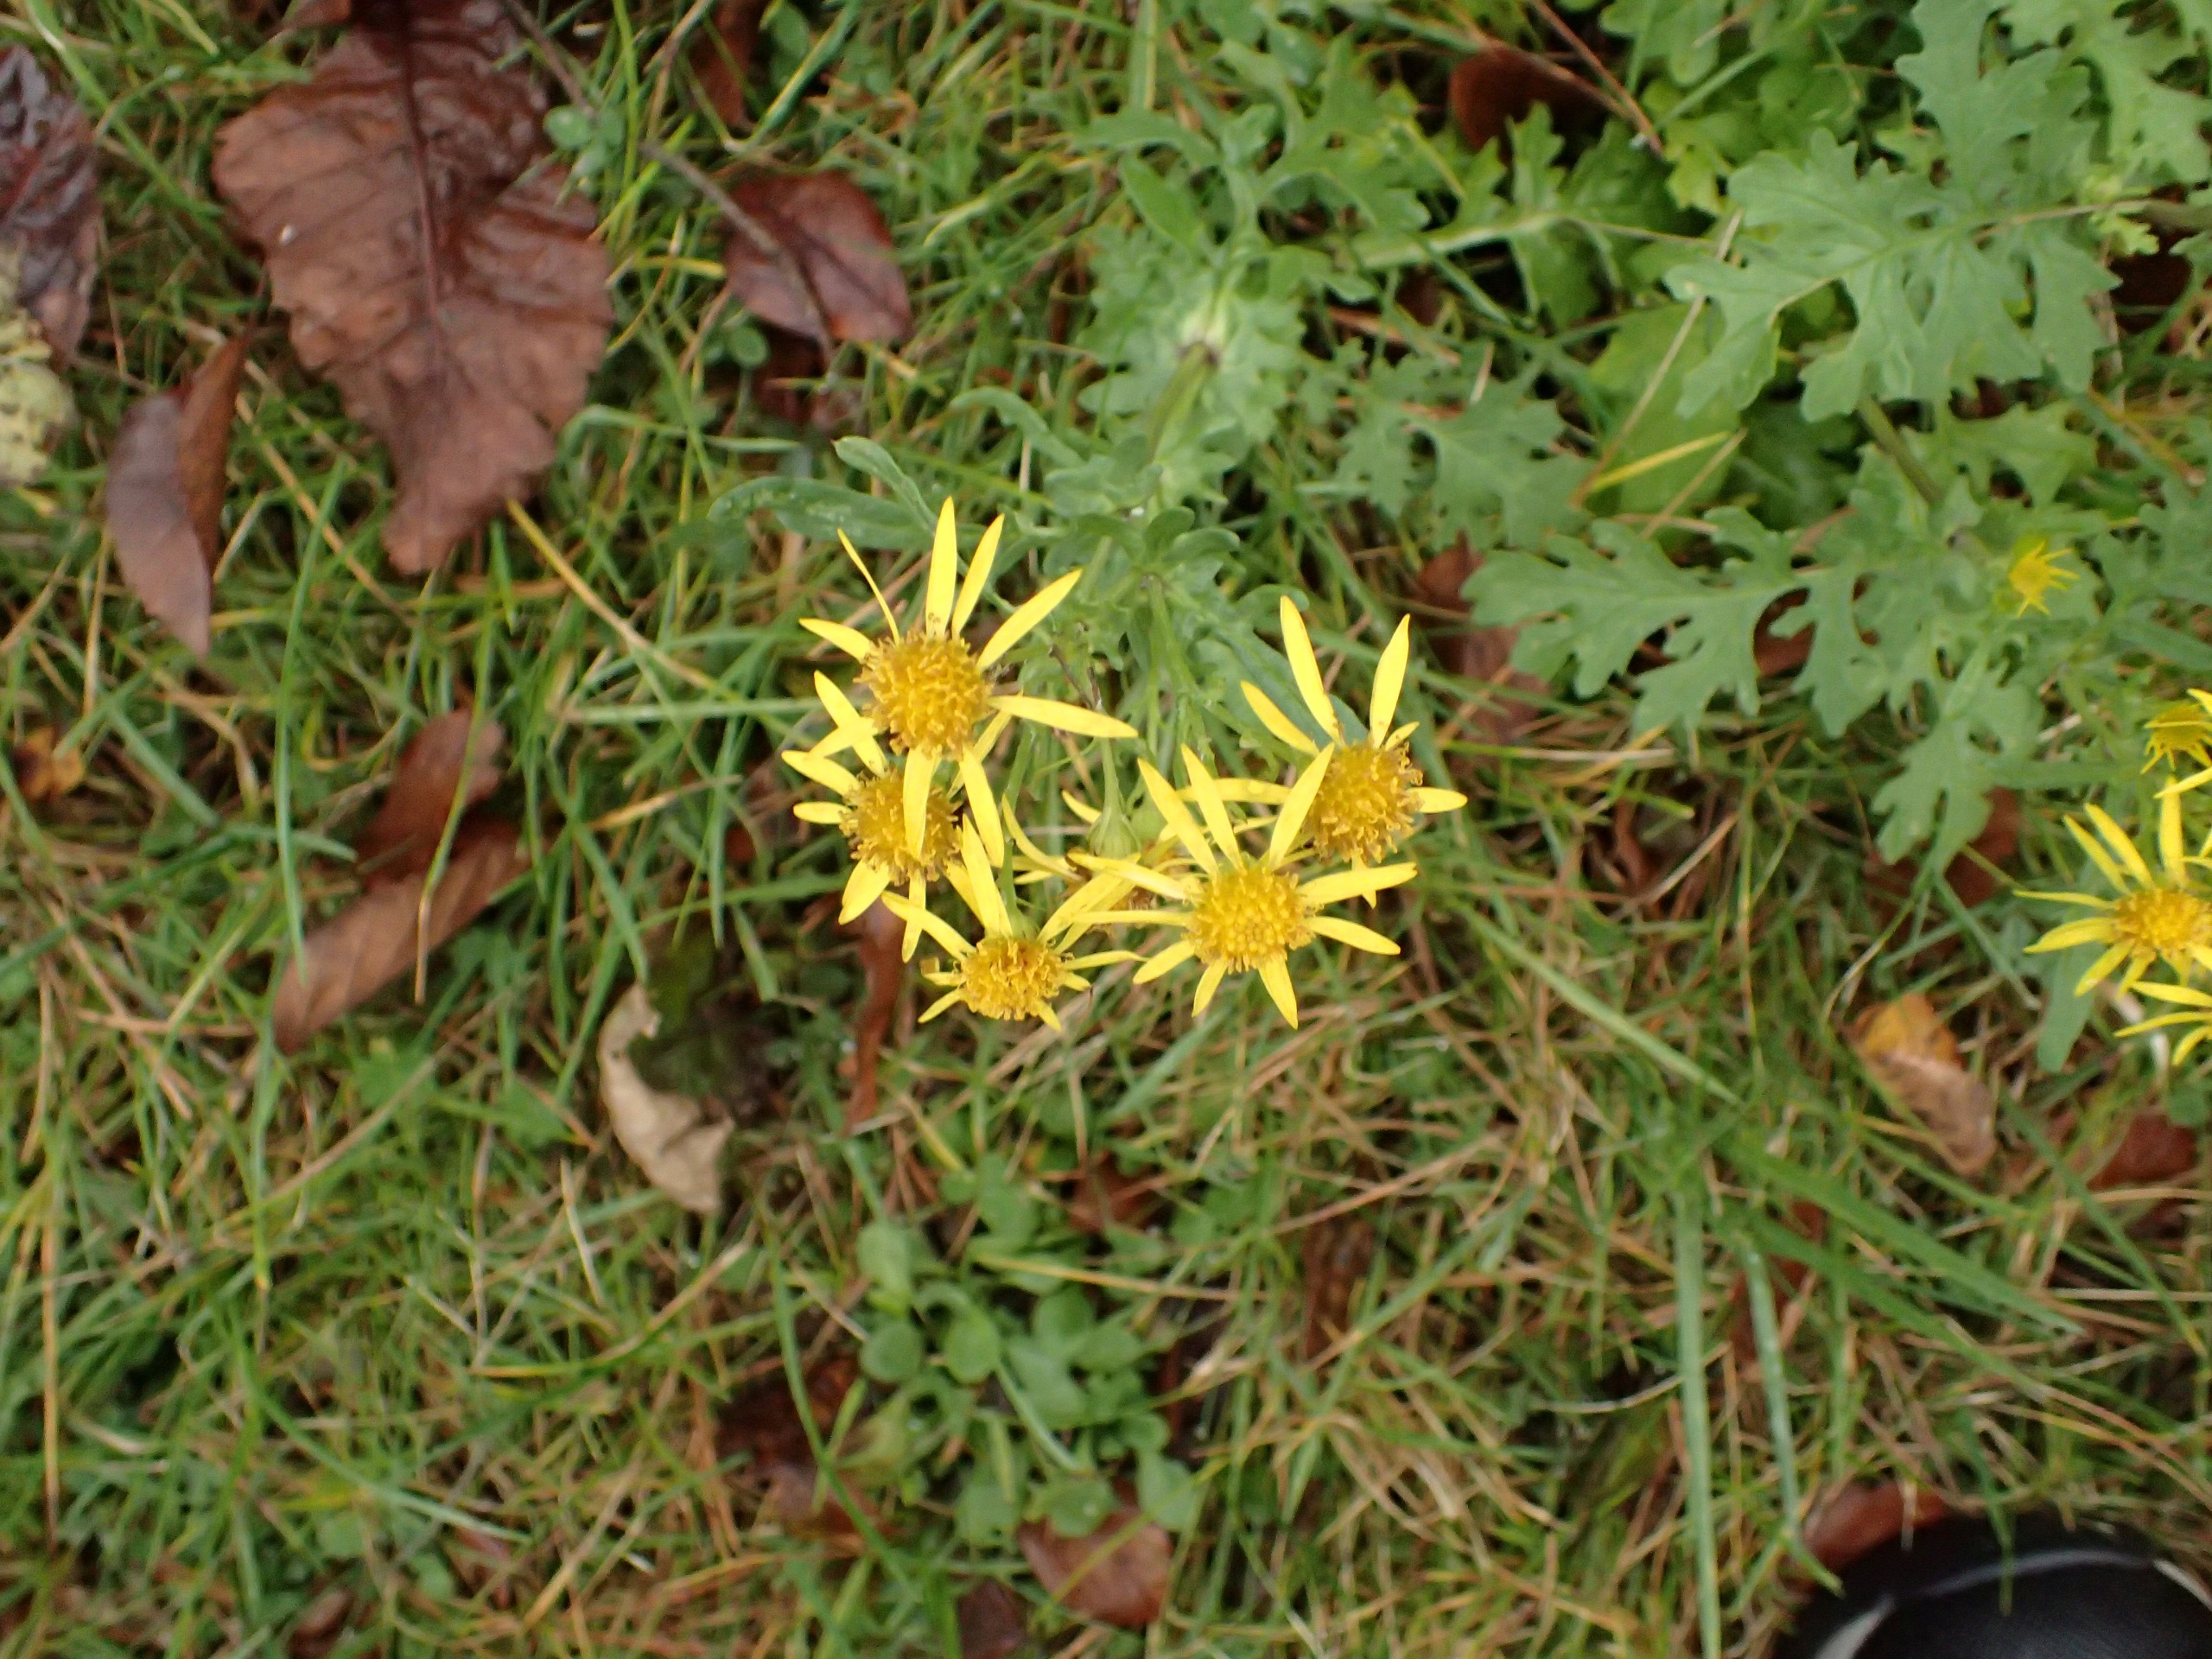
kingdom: Plantae
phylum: Tracheophyta
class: Magnoliopsida
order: Asterales
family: Asteraceae
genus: Jacobaea
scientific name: Jacobaea vulgaris
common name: Eng-brandbæger
